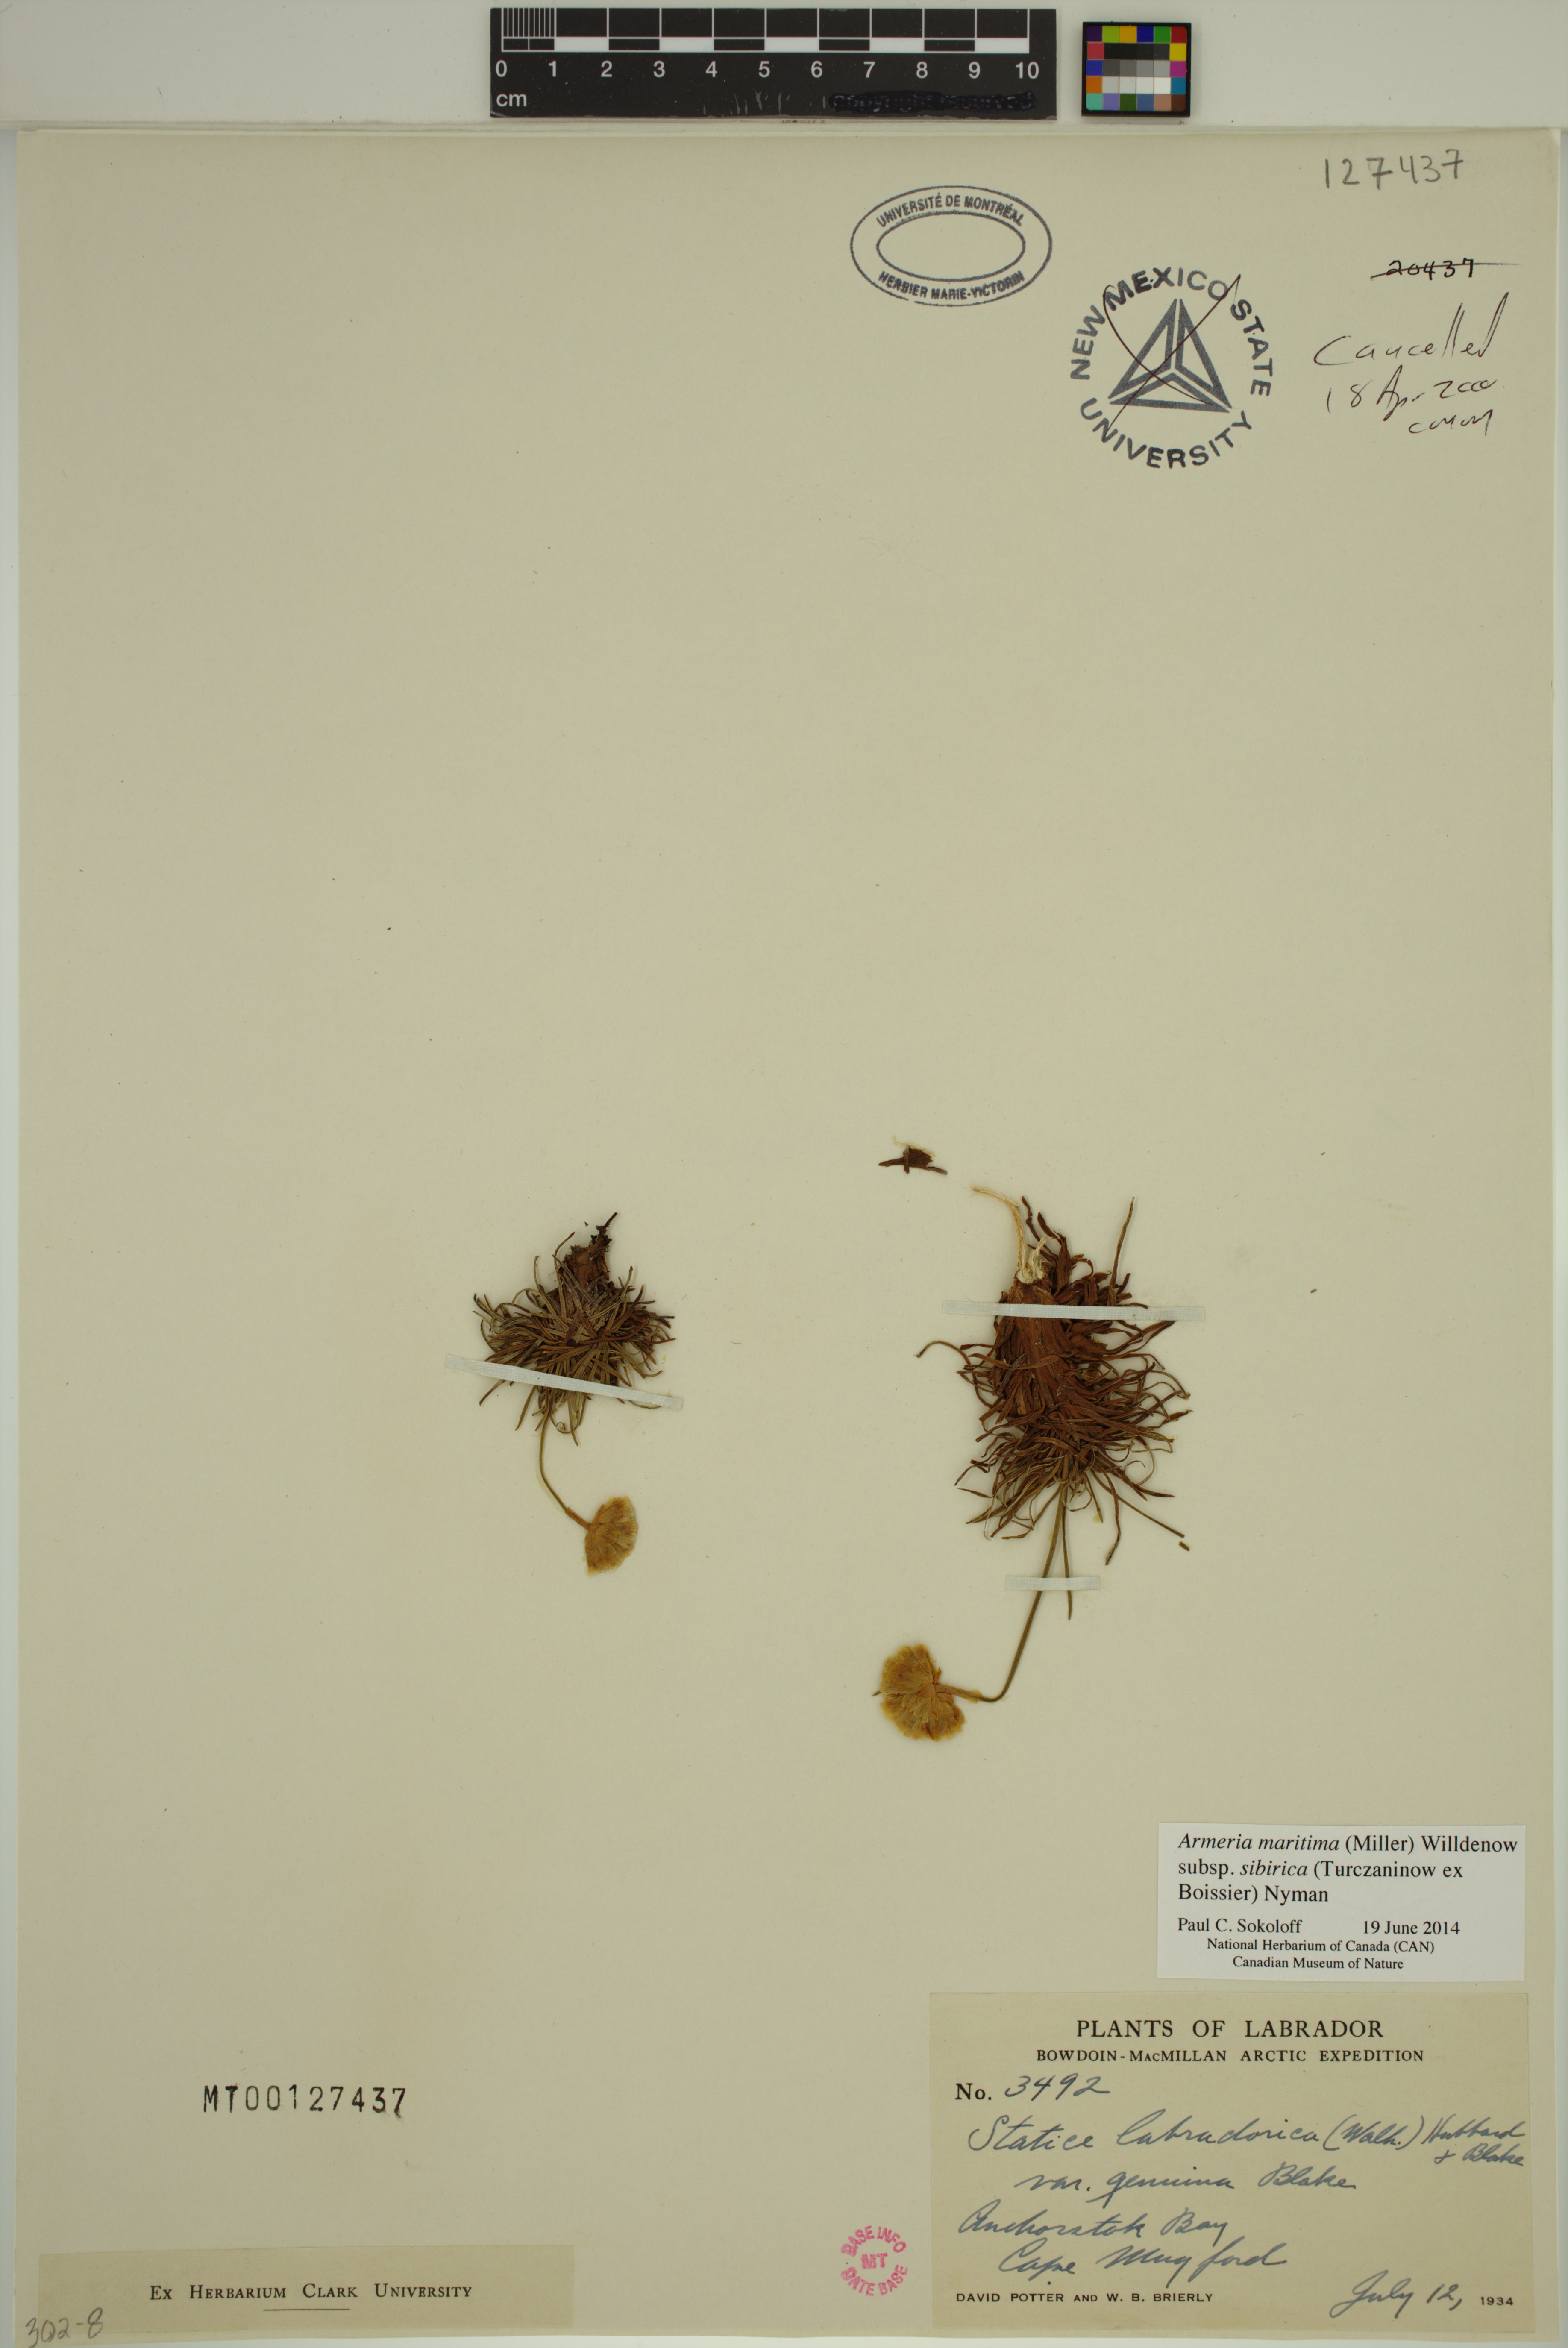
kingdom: Plantae
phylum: Tracheophyta
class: Magnoliopsida
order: Caryophyllales
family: Plumbaginaceae
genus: Armeria
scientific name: Armeria maritima
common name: Thrift
